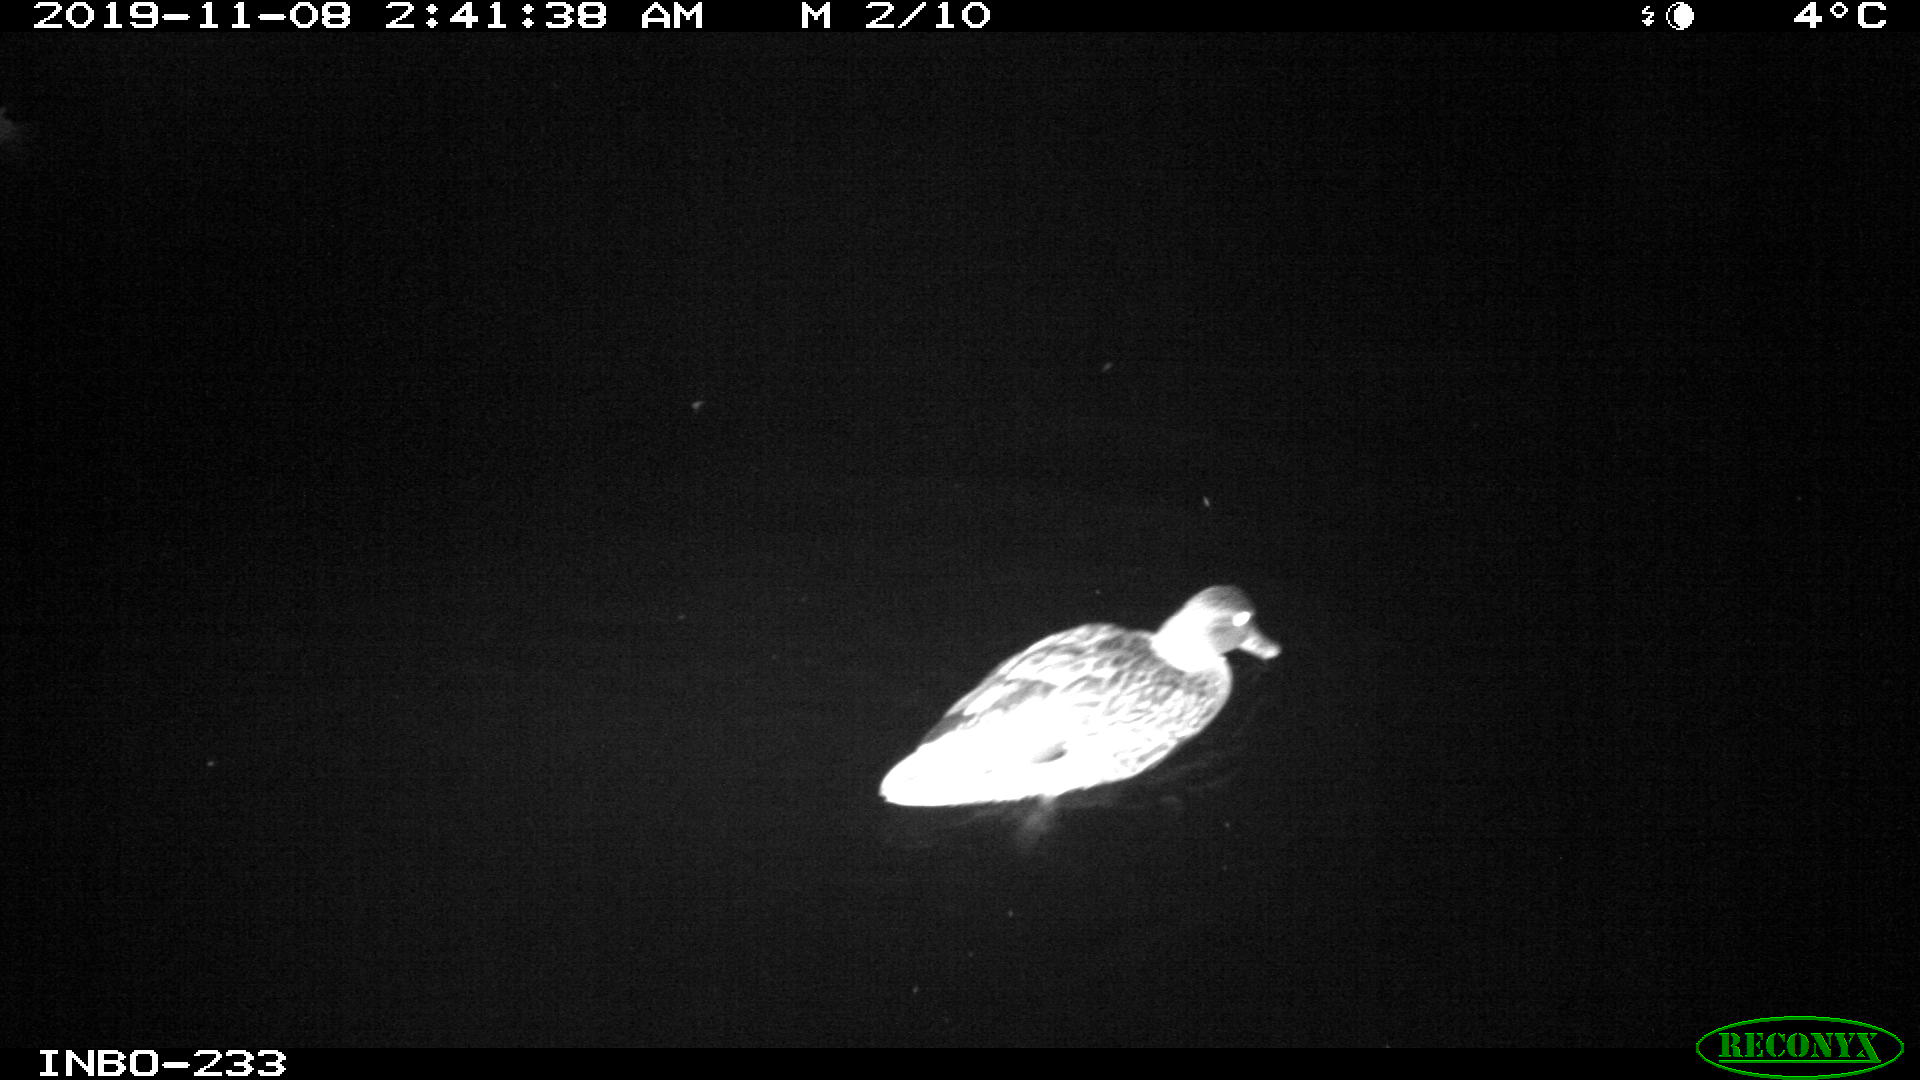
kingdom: Animalia
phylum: Chordata
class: Aves
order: Anseriformes
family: Anatidae
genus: Anas
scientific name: Anas platyrhynchos
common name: Mallard
